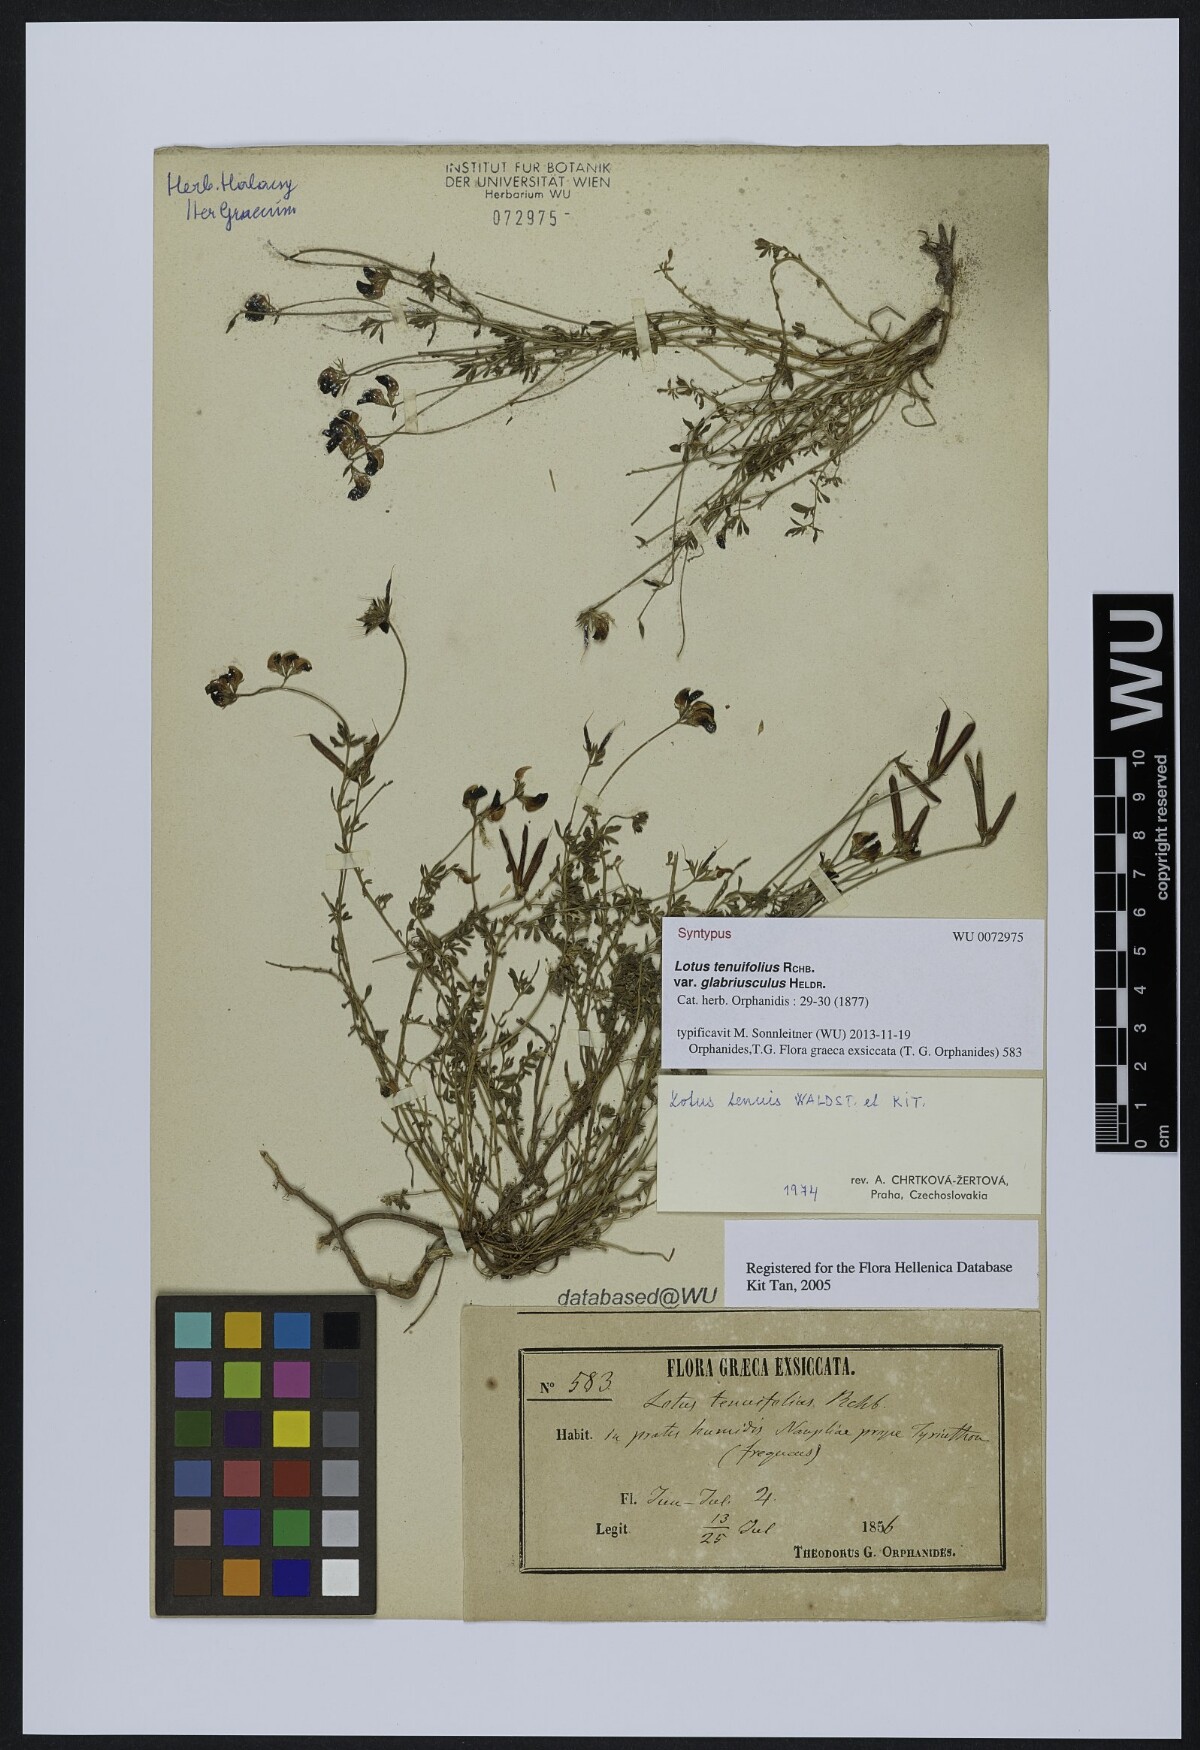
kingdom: Plantae
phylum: Tracheophyta
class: Magnoliopsida
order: Fabales
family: Fabaceae
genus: Lotus
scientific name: Lotus palustris
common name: Large birds-foot trefoil
